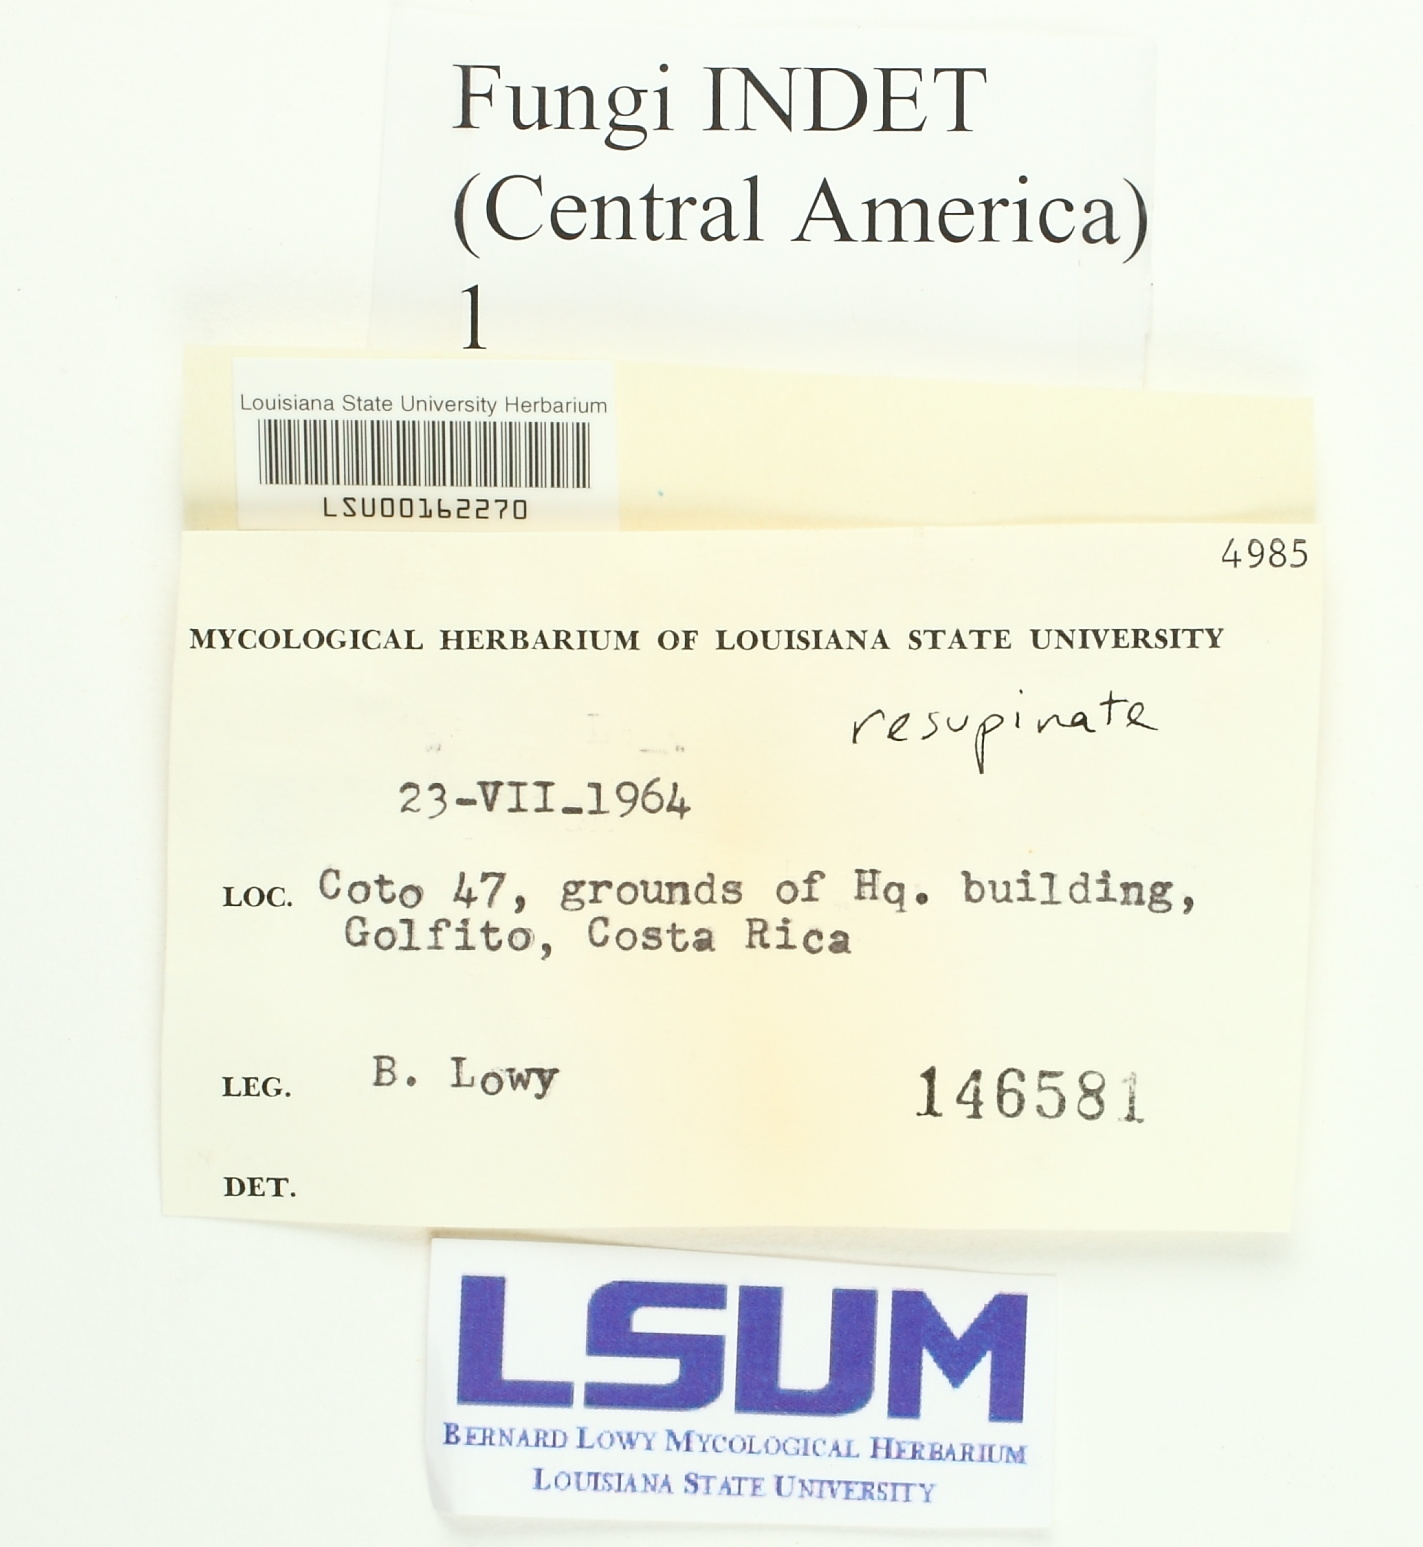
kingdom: Fungi
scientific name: Fungi
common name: Fungi
